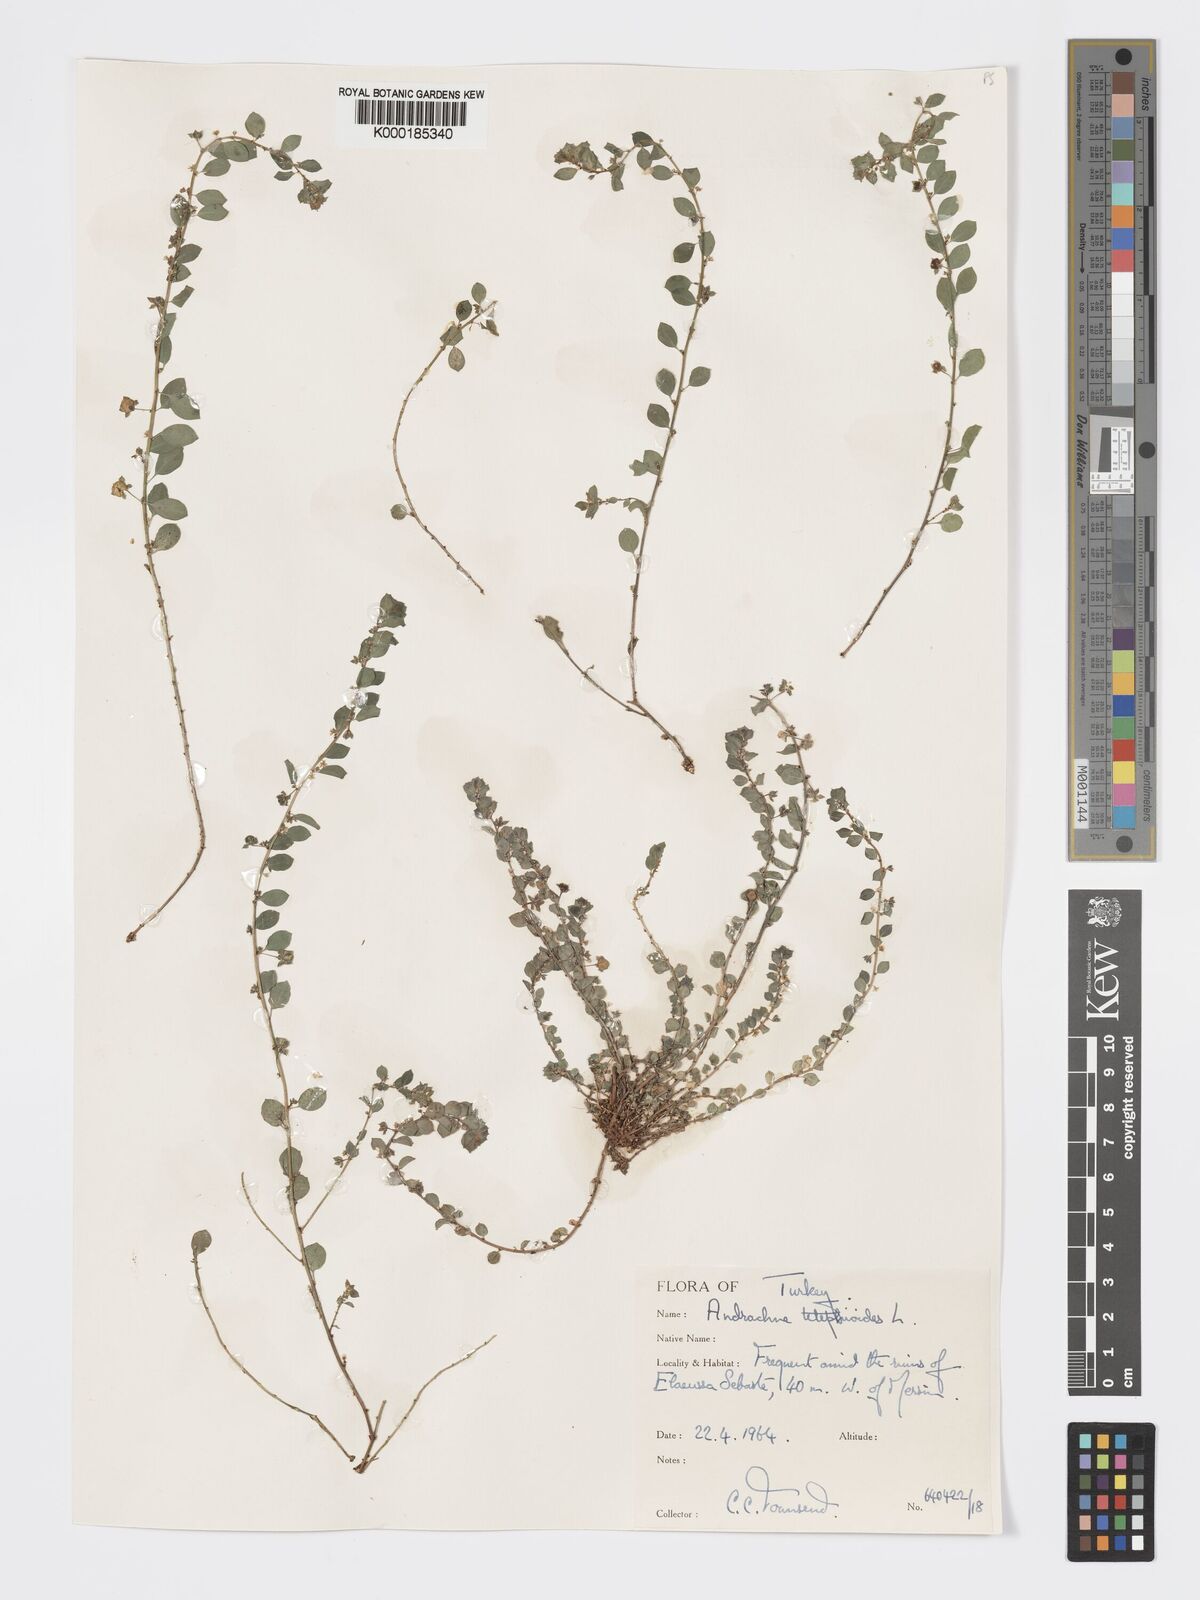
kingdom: Plantae
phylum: Tracheophyta
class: Magnoliopsida
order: Malpighiales
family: Phyllanthaceae
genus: Andrachne
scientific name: Andrachne telephioides
